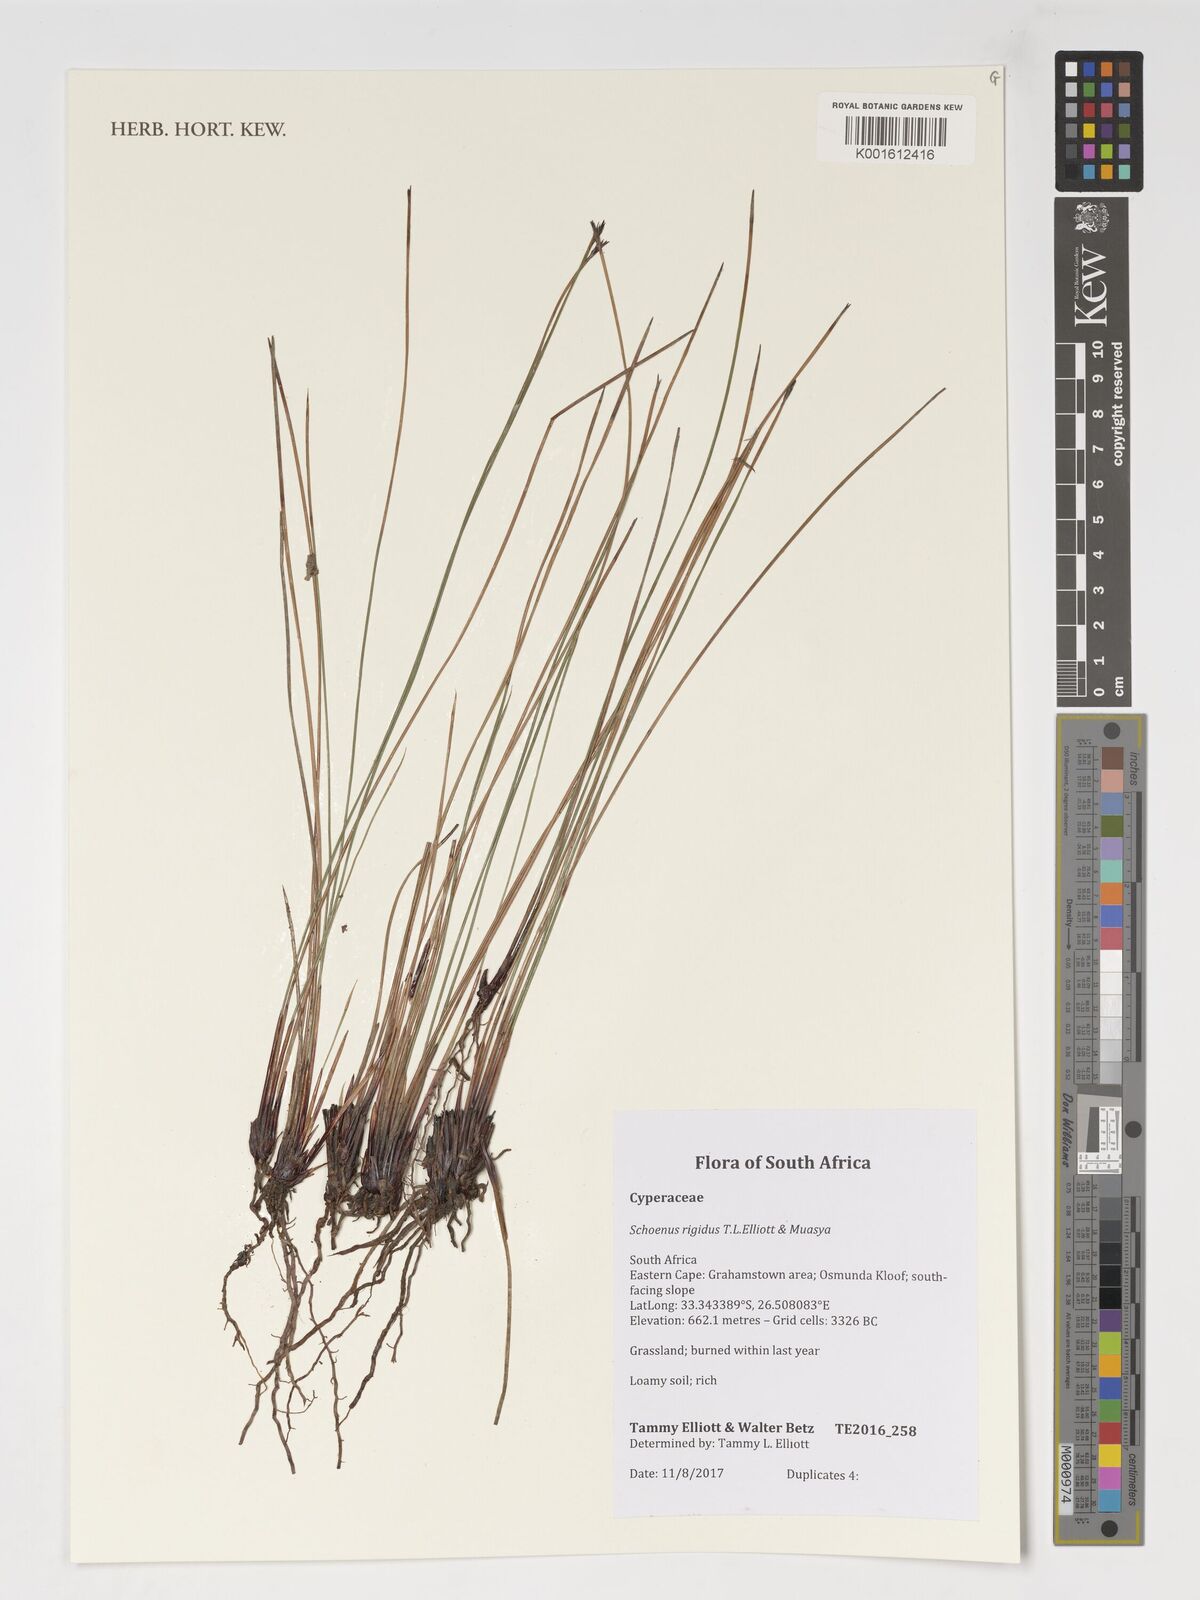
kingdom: Plantae
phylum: Tracheophyta
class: Liliopsida
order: Poales
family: Cyperaceae
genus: Schoenus
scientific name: Schoenus
